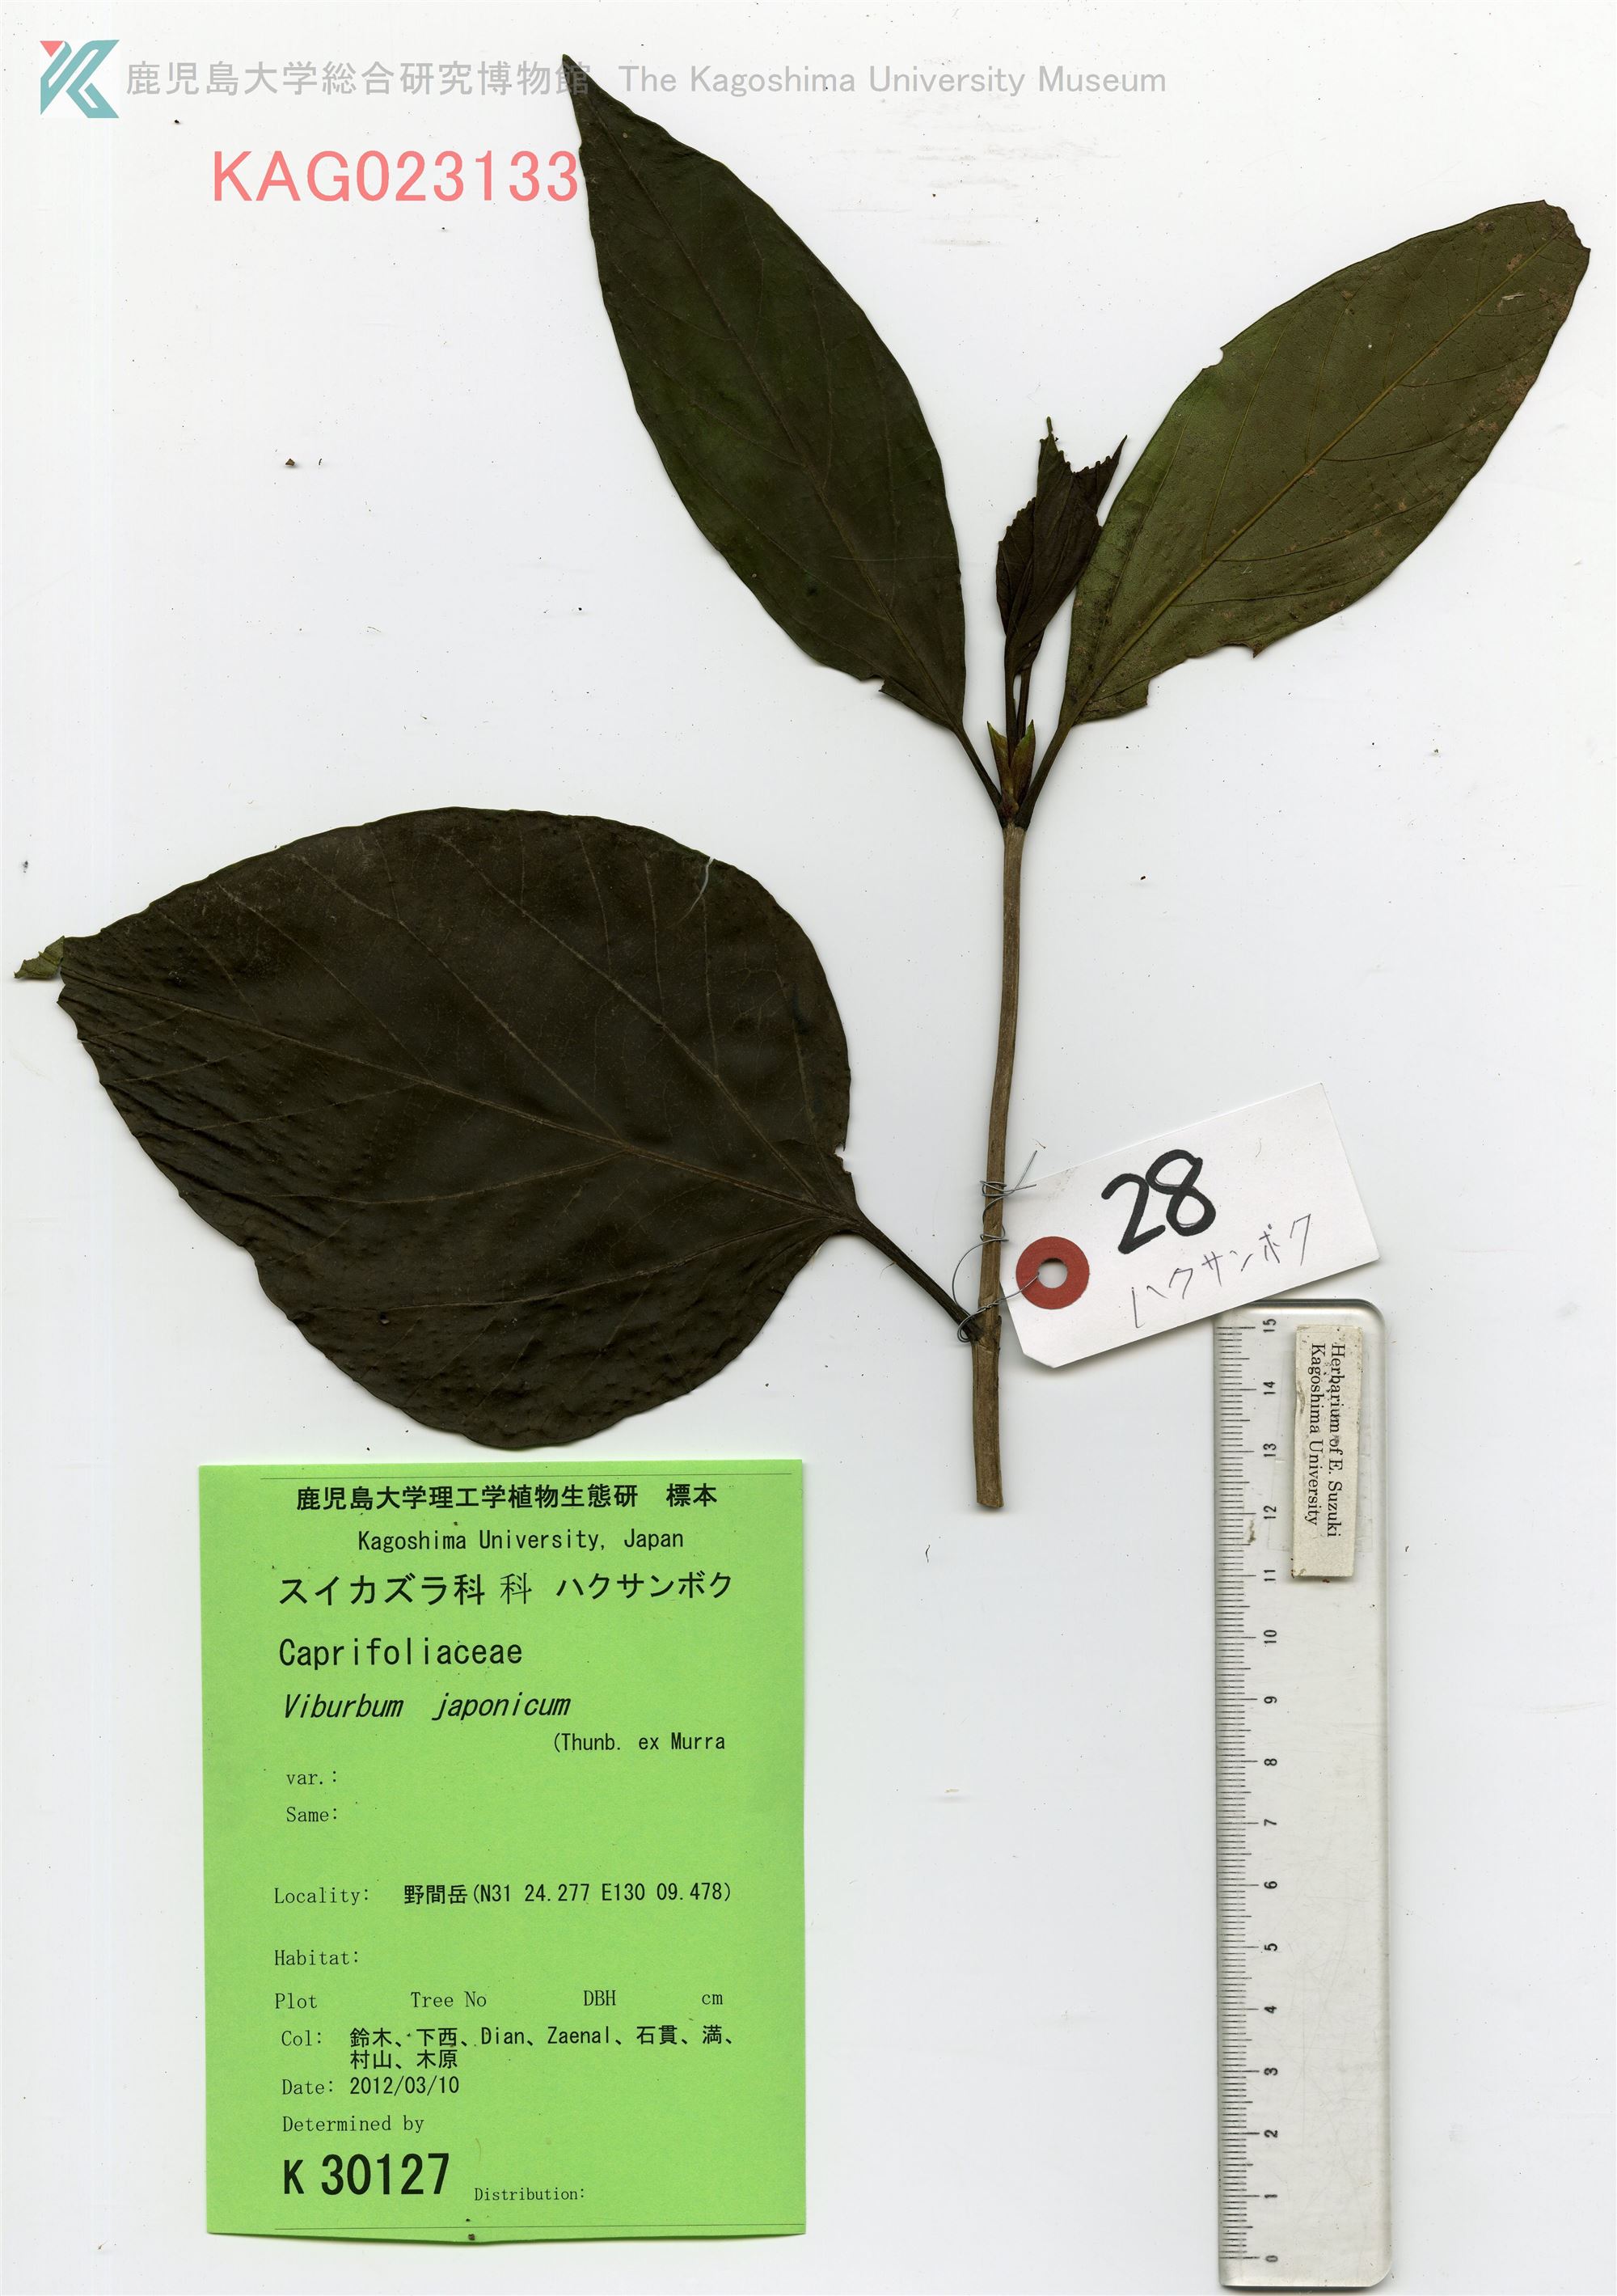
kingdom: Plantae
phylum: Tracheophyta
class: Magnoliopsida
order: Dipsacales
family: Viburnaceae
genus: Viburnum
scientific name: Viburnum japonicum
